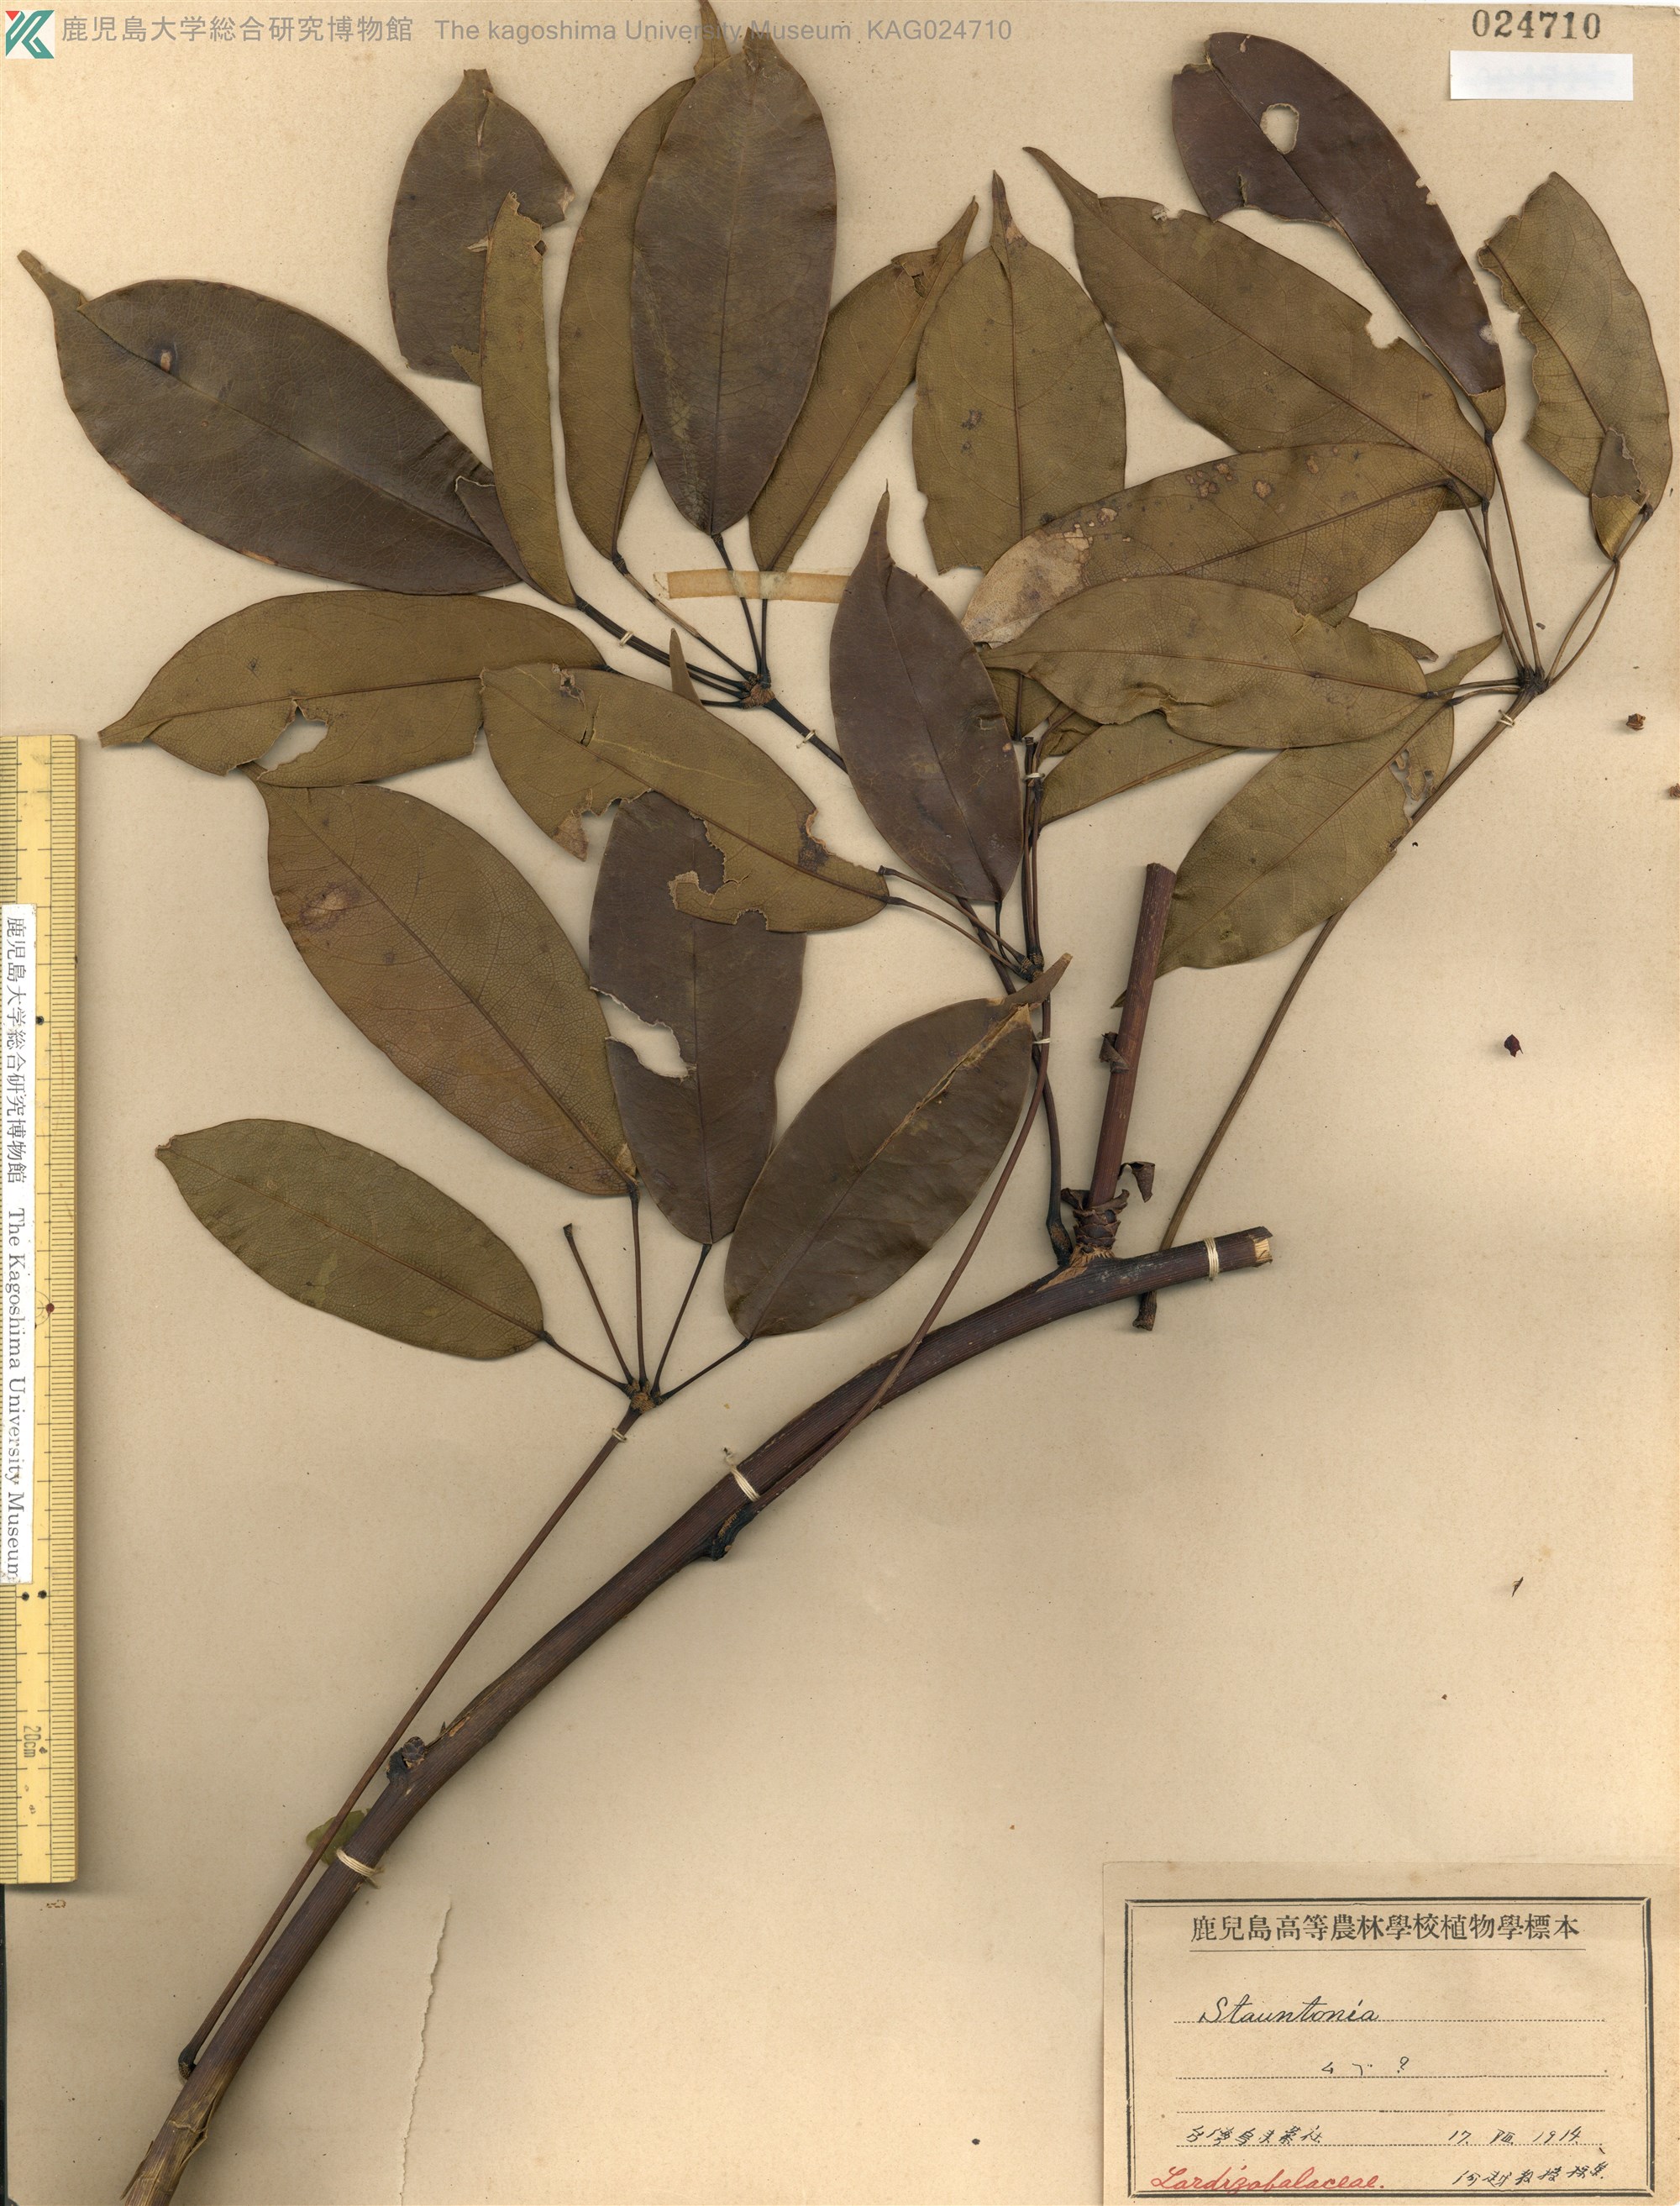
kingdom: Plantae
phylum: Tracheophyta
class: Magnoliopsida
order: Ranunculales
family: Lardizabalaceae
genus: Stauntonia
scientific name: Stauntonia hexaphylla
